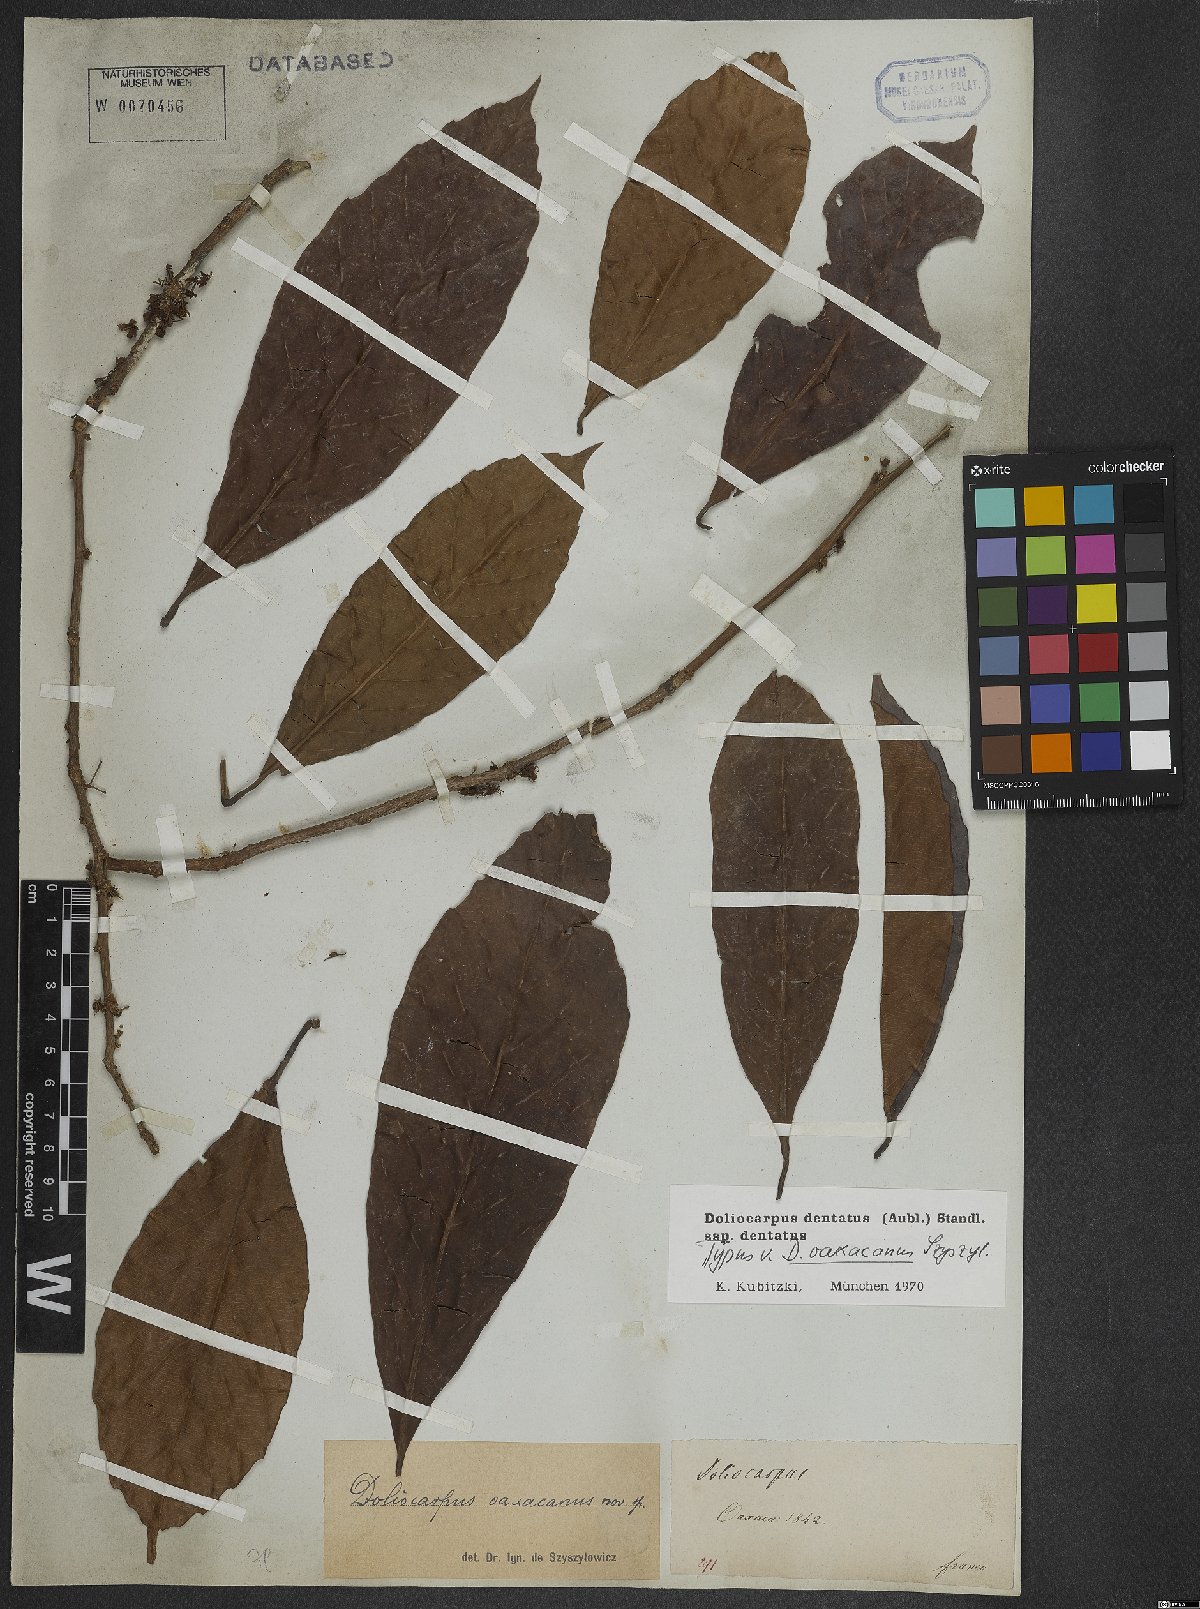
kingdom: Plantae
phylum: Tracheophyta
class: Magnoliopsida
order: Dilleniales
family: Dilleniaceae
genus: Doliocarpus
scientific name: Doliocarpus dentatus
